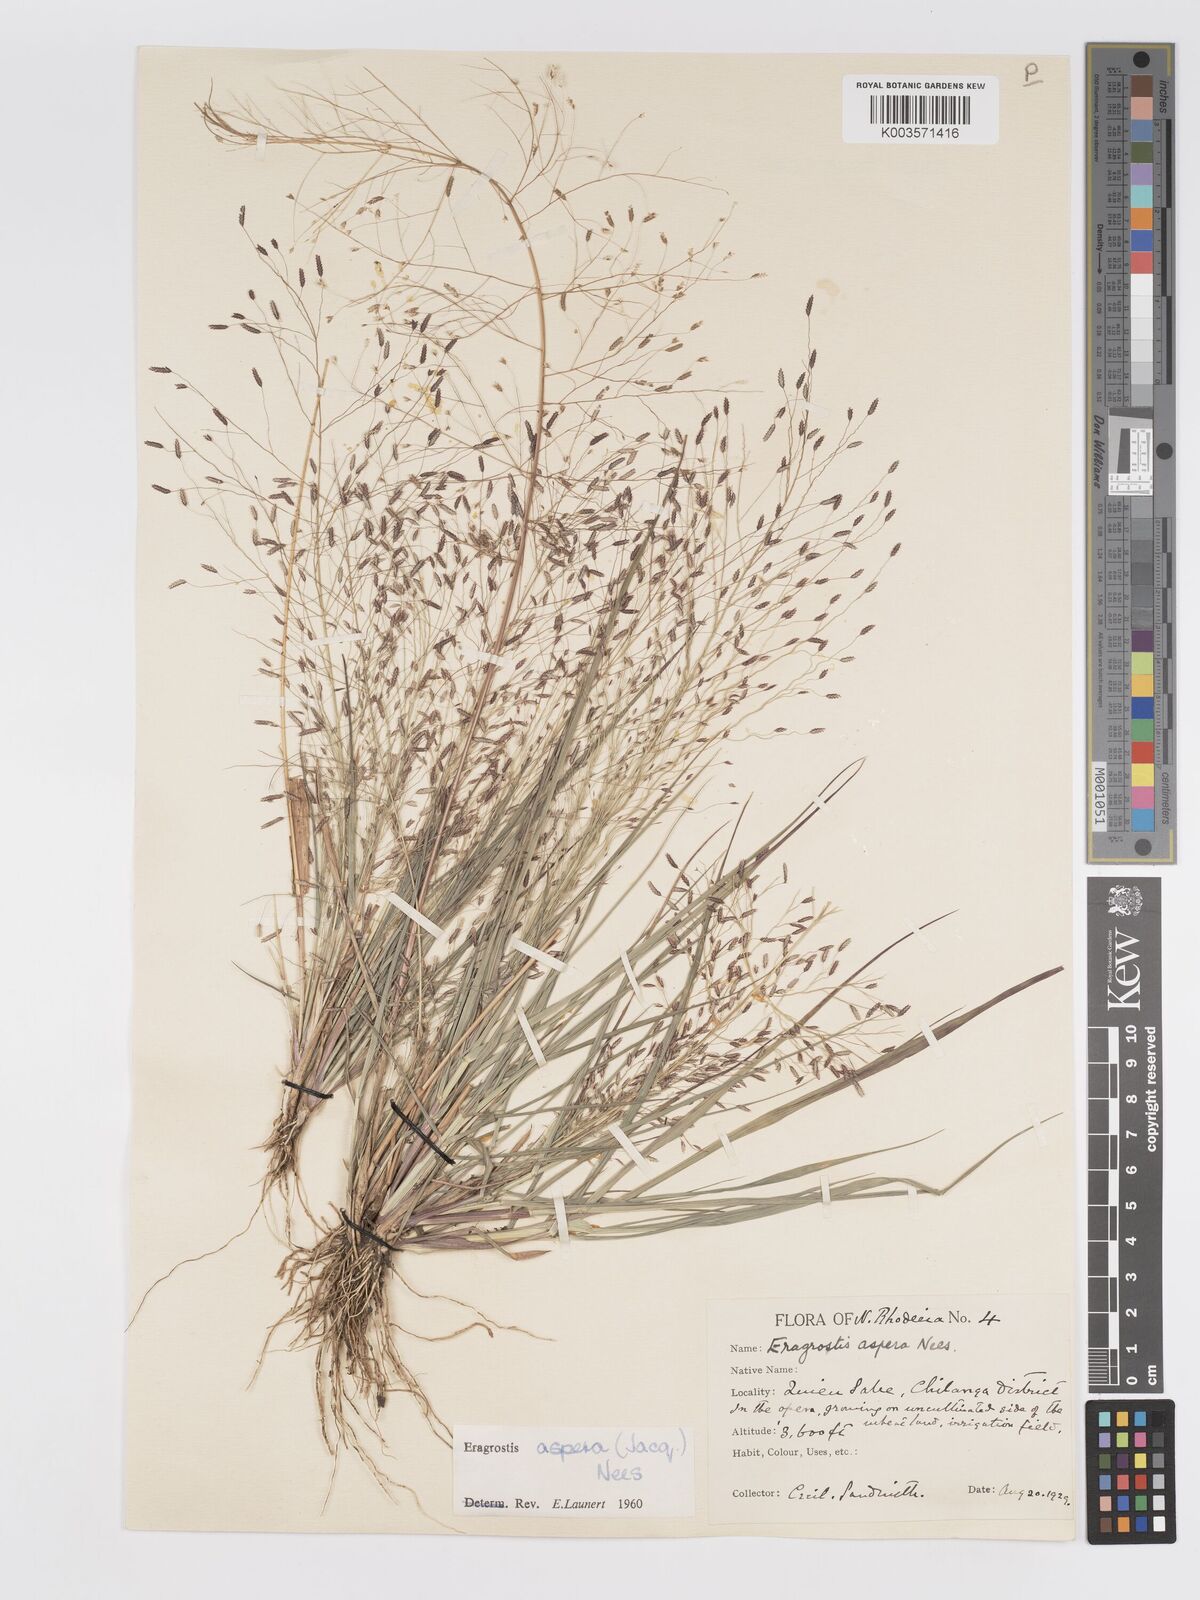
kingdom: Plantae
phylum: Tracheophyta
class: Liliopsida
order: Poales
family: Poaceae
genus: Eragrostis
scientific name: Eragrostis aspera
